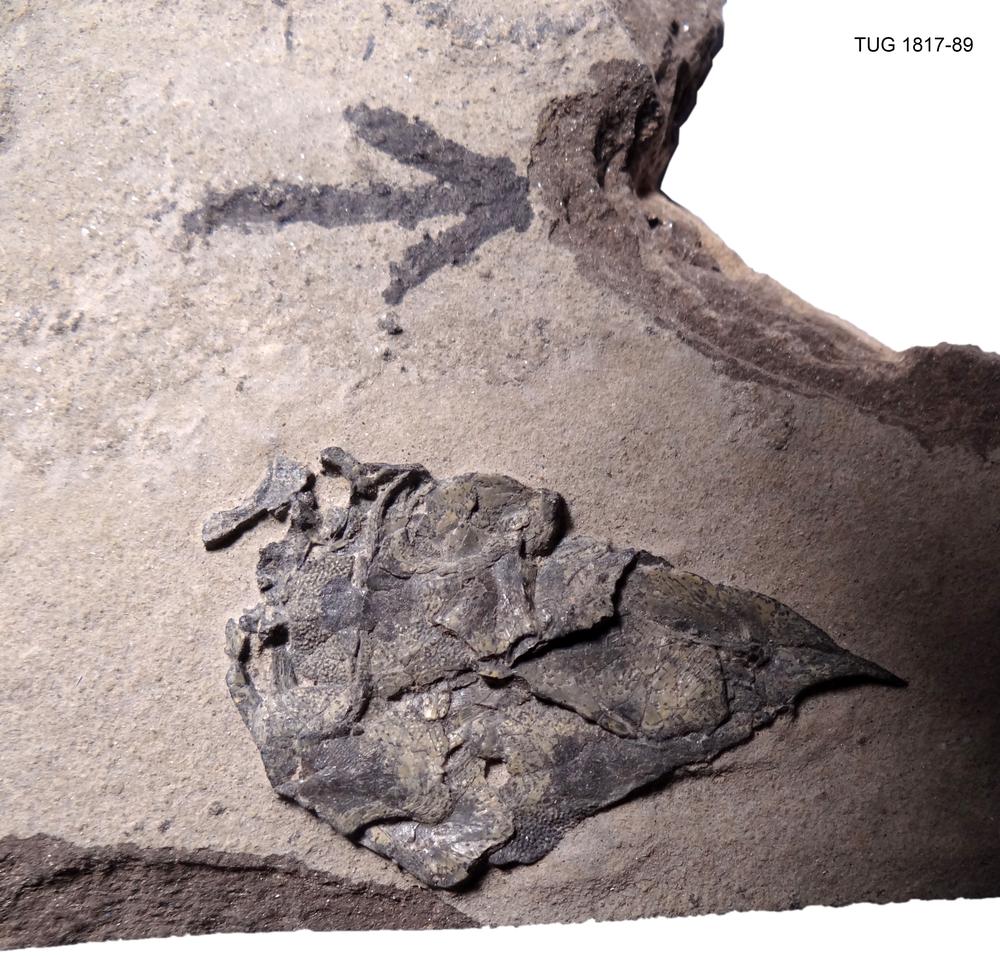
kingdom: Animalia
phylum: Chordata
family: Coccosteidae
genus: Millerosteus
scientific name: Millerosteus minor
